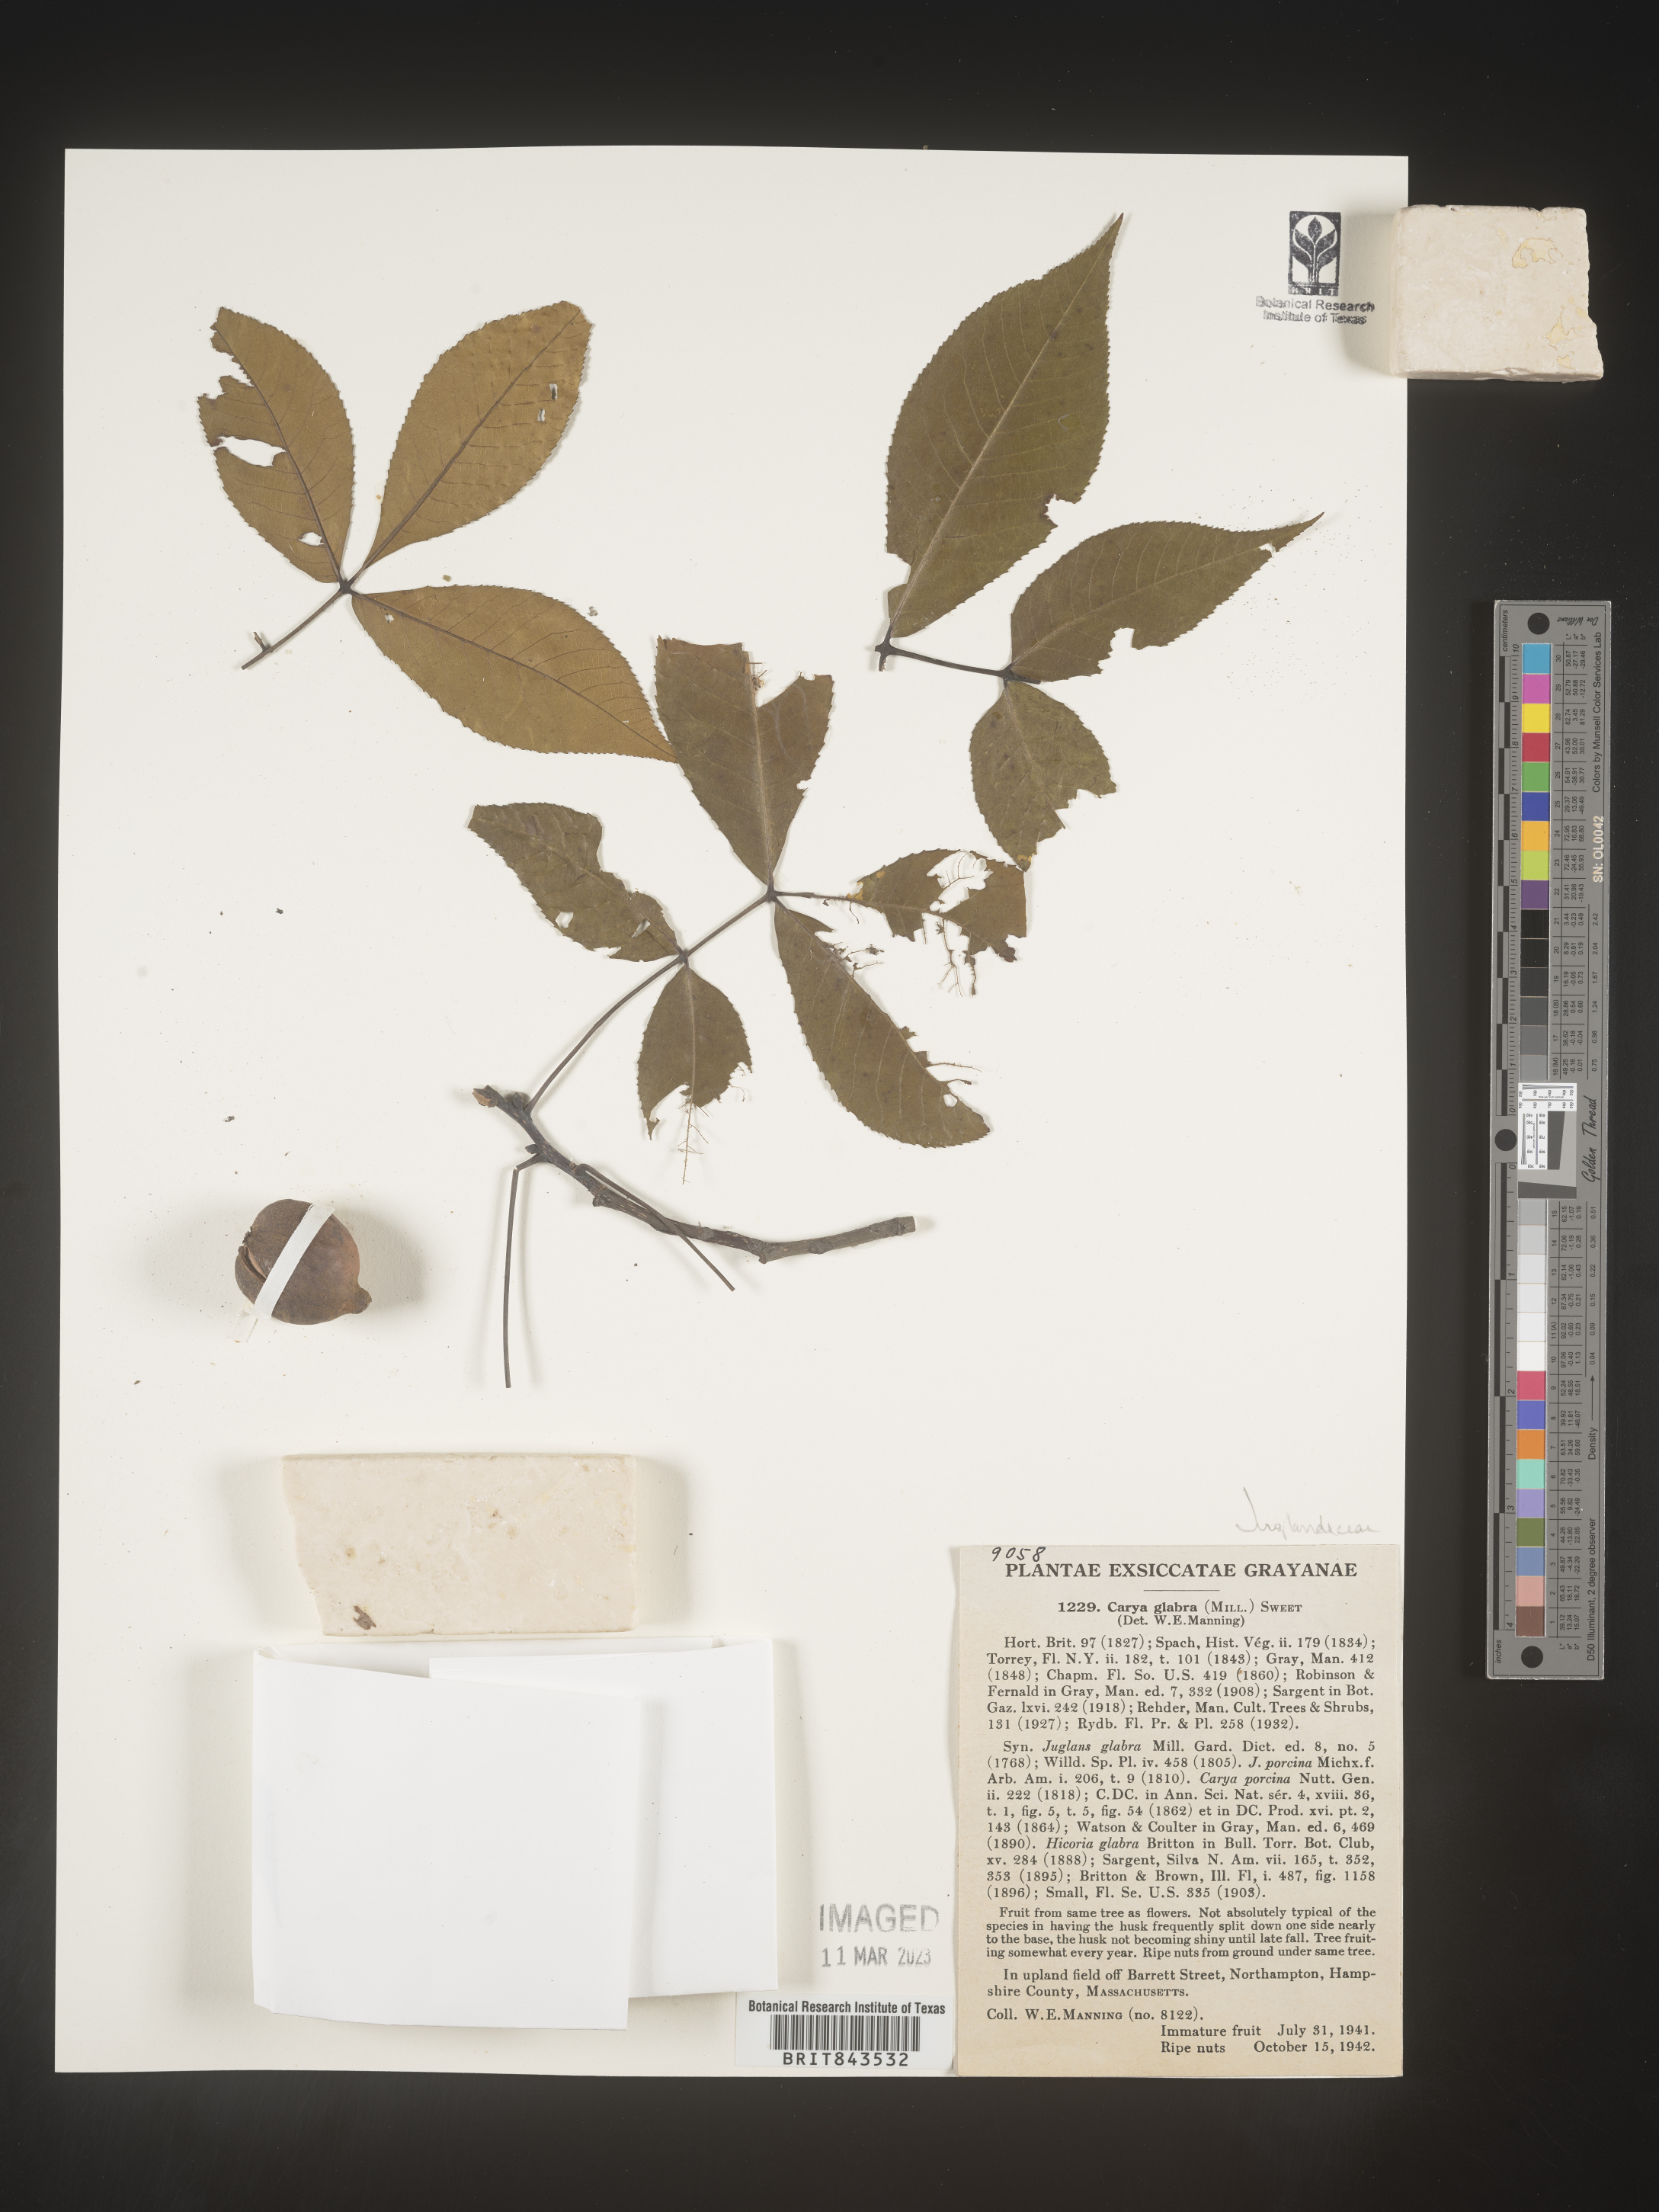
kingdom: Plantae
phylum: Tracheophyta
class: Magnoliopsida
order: Fagales
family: Juglandaceae
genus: Carya
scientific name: Carya glabra
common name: Pignut hickory
